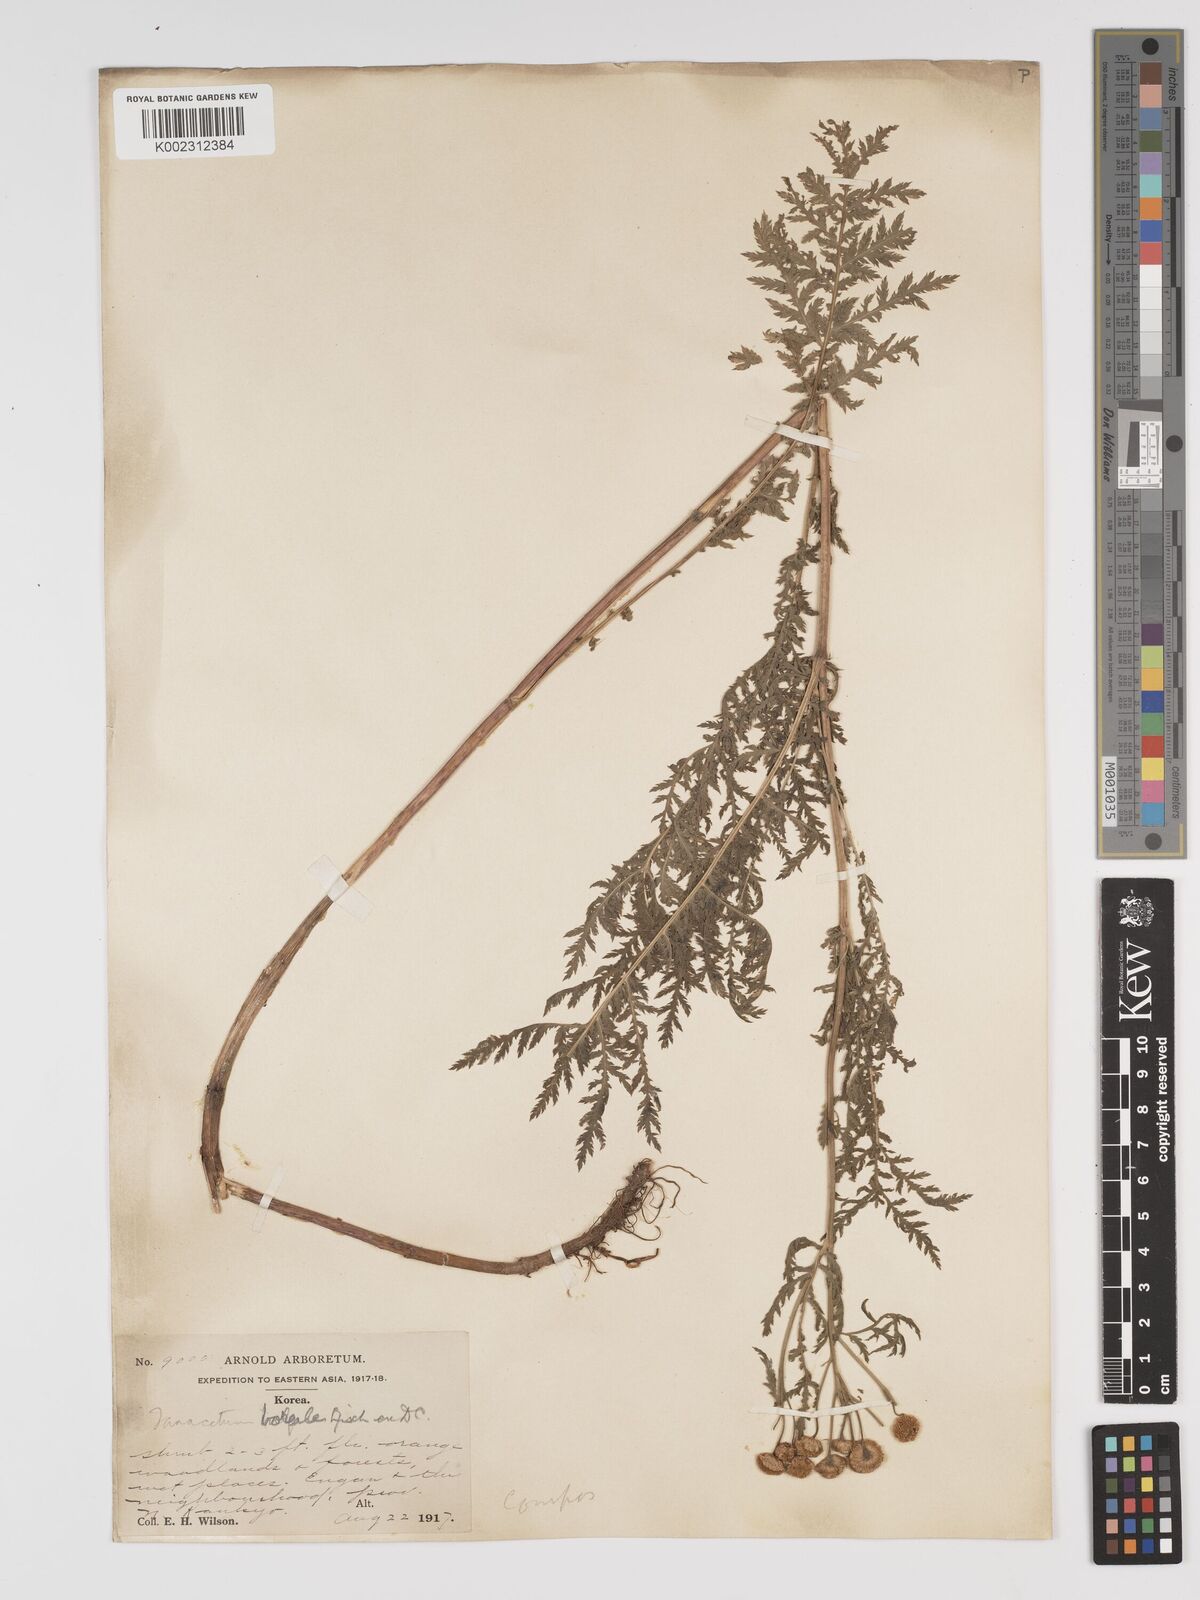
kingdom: Plantae
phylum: Tracheophyta
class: Magnoliopsida
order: Asterales
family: Asteraceae
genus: Tanacetum
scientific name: Tanacetum vulgare
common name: Common tansy
